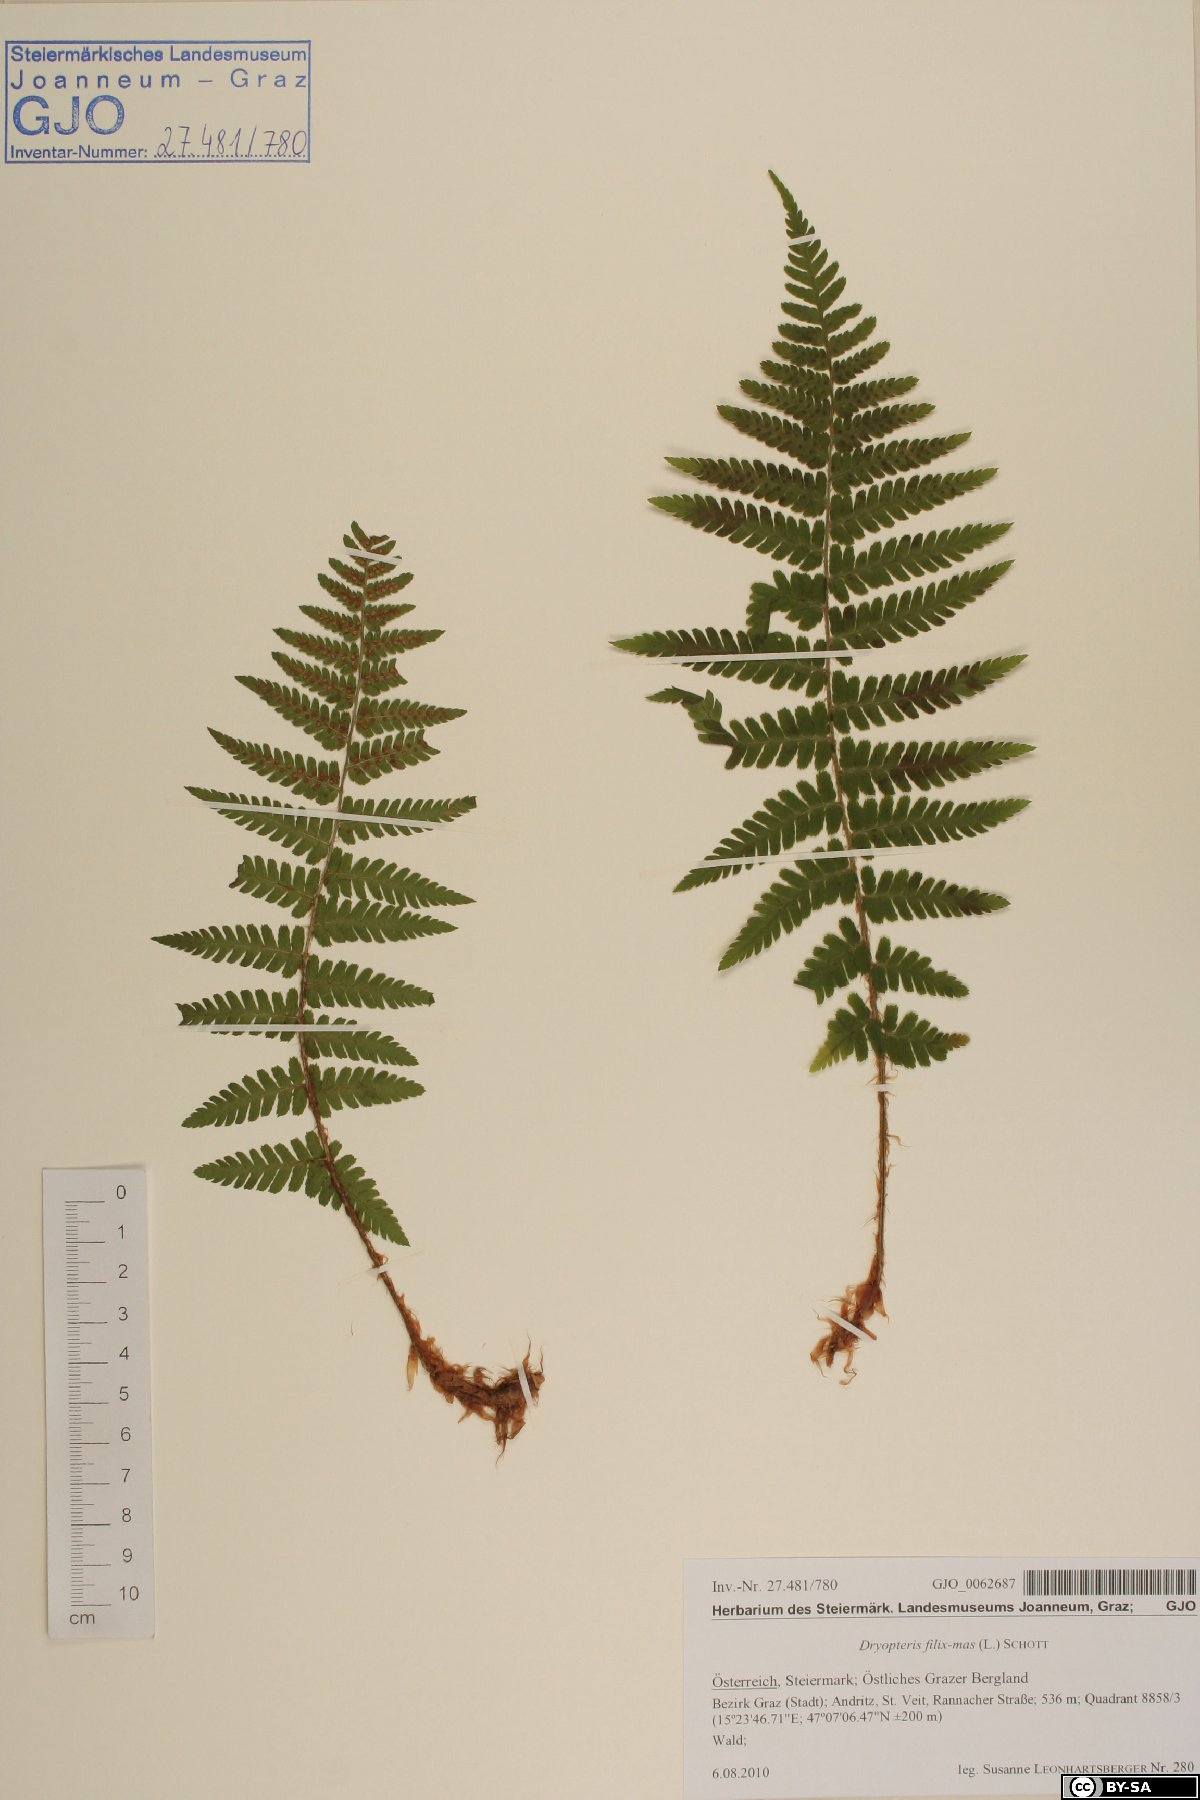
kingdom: Plantae
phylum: Tracheophyta
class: Polypodiopsida
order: Polypodiales
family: Dryopteridaceae
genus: Dryopteris
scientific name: Dryopteris filix-mas
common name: Male fern
